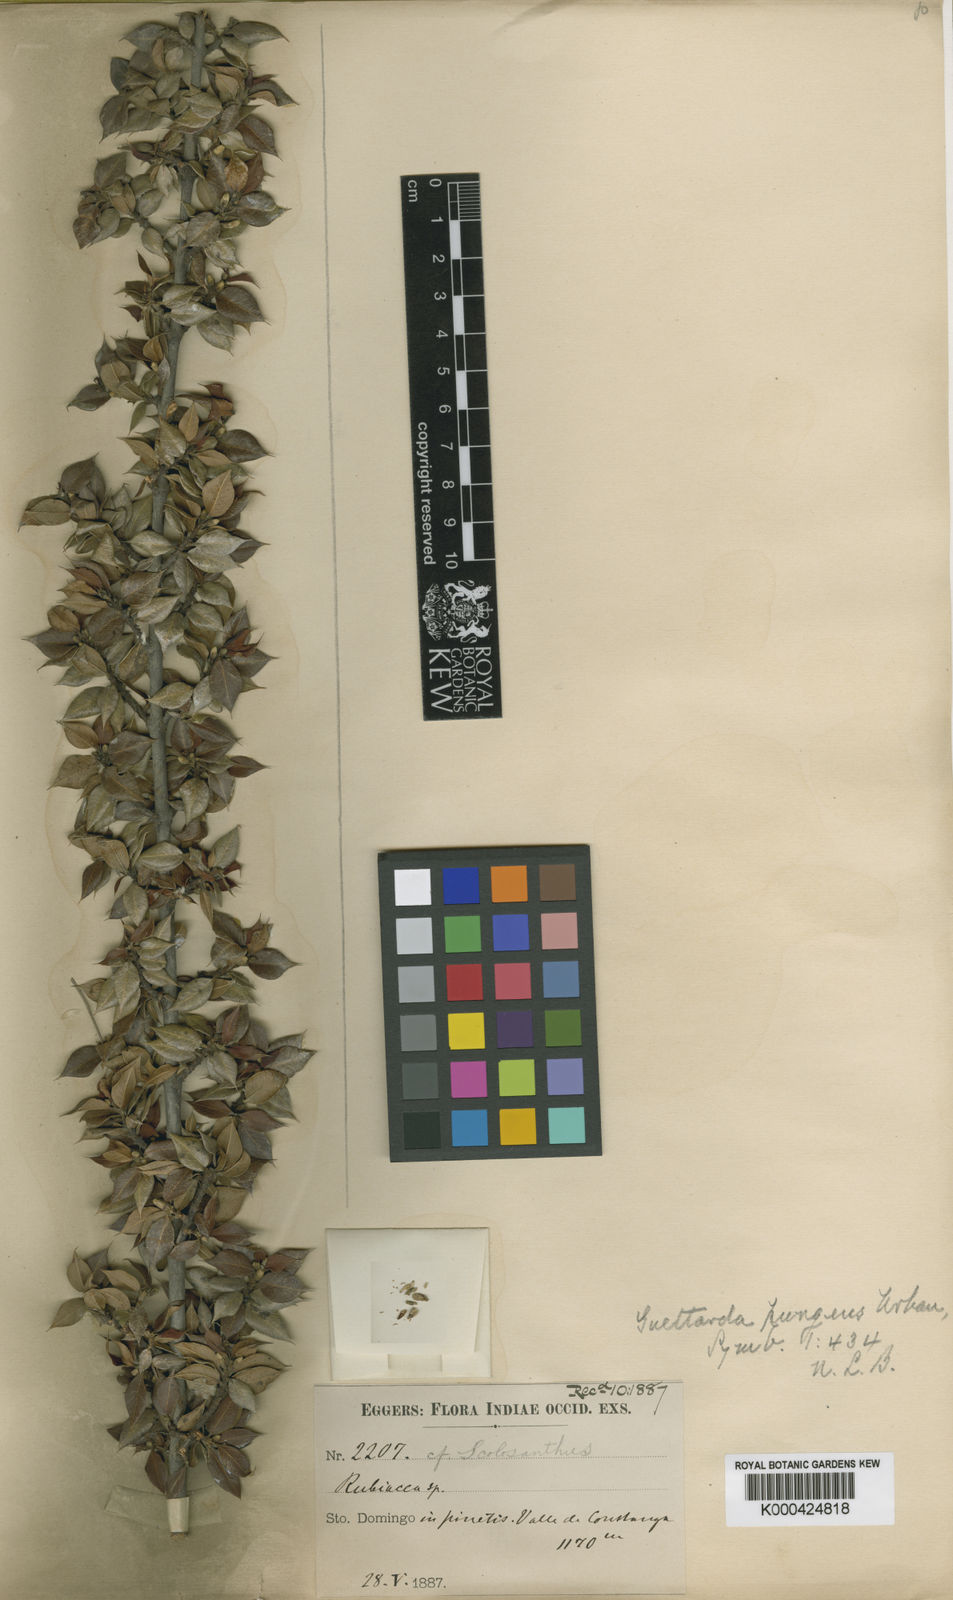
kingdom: Plantae
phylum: Tracheophyta
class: Magnoliopsida
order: Gentianales
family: Rubiaceae
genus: Guettarda
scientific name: Guettarda pungens
